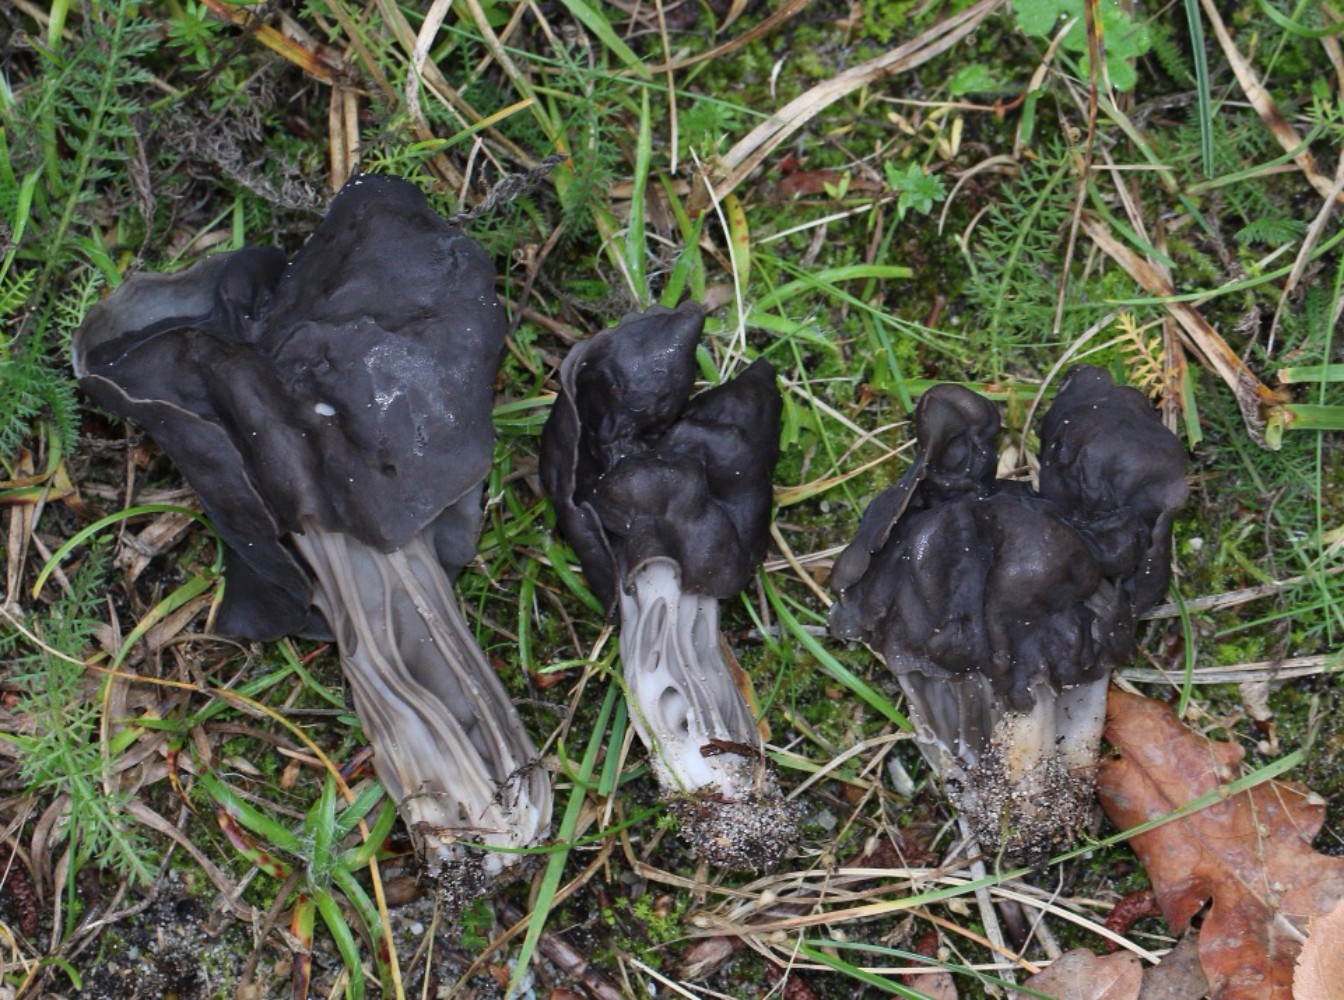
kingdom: Fungi
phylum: Ascomycota
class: Pezizomycetes
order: Pezizales
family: Helvellaceae
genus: Helvella
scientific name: Helvella lacunosa
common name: grubet foldhat
